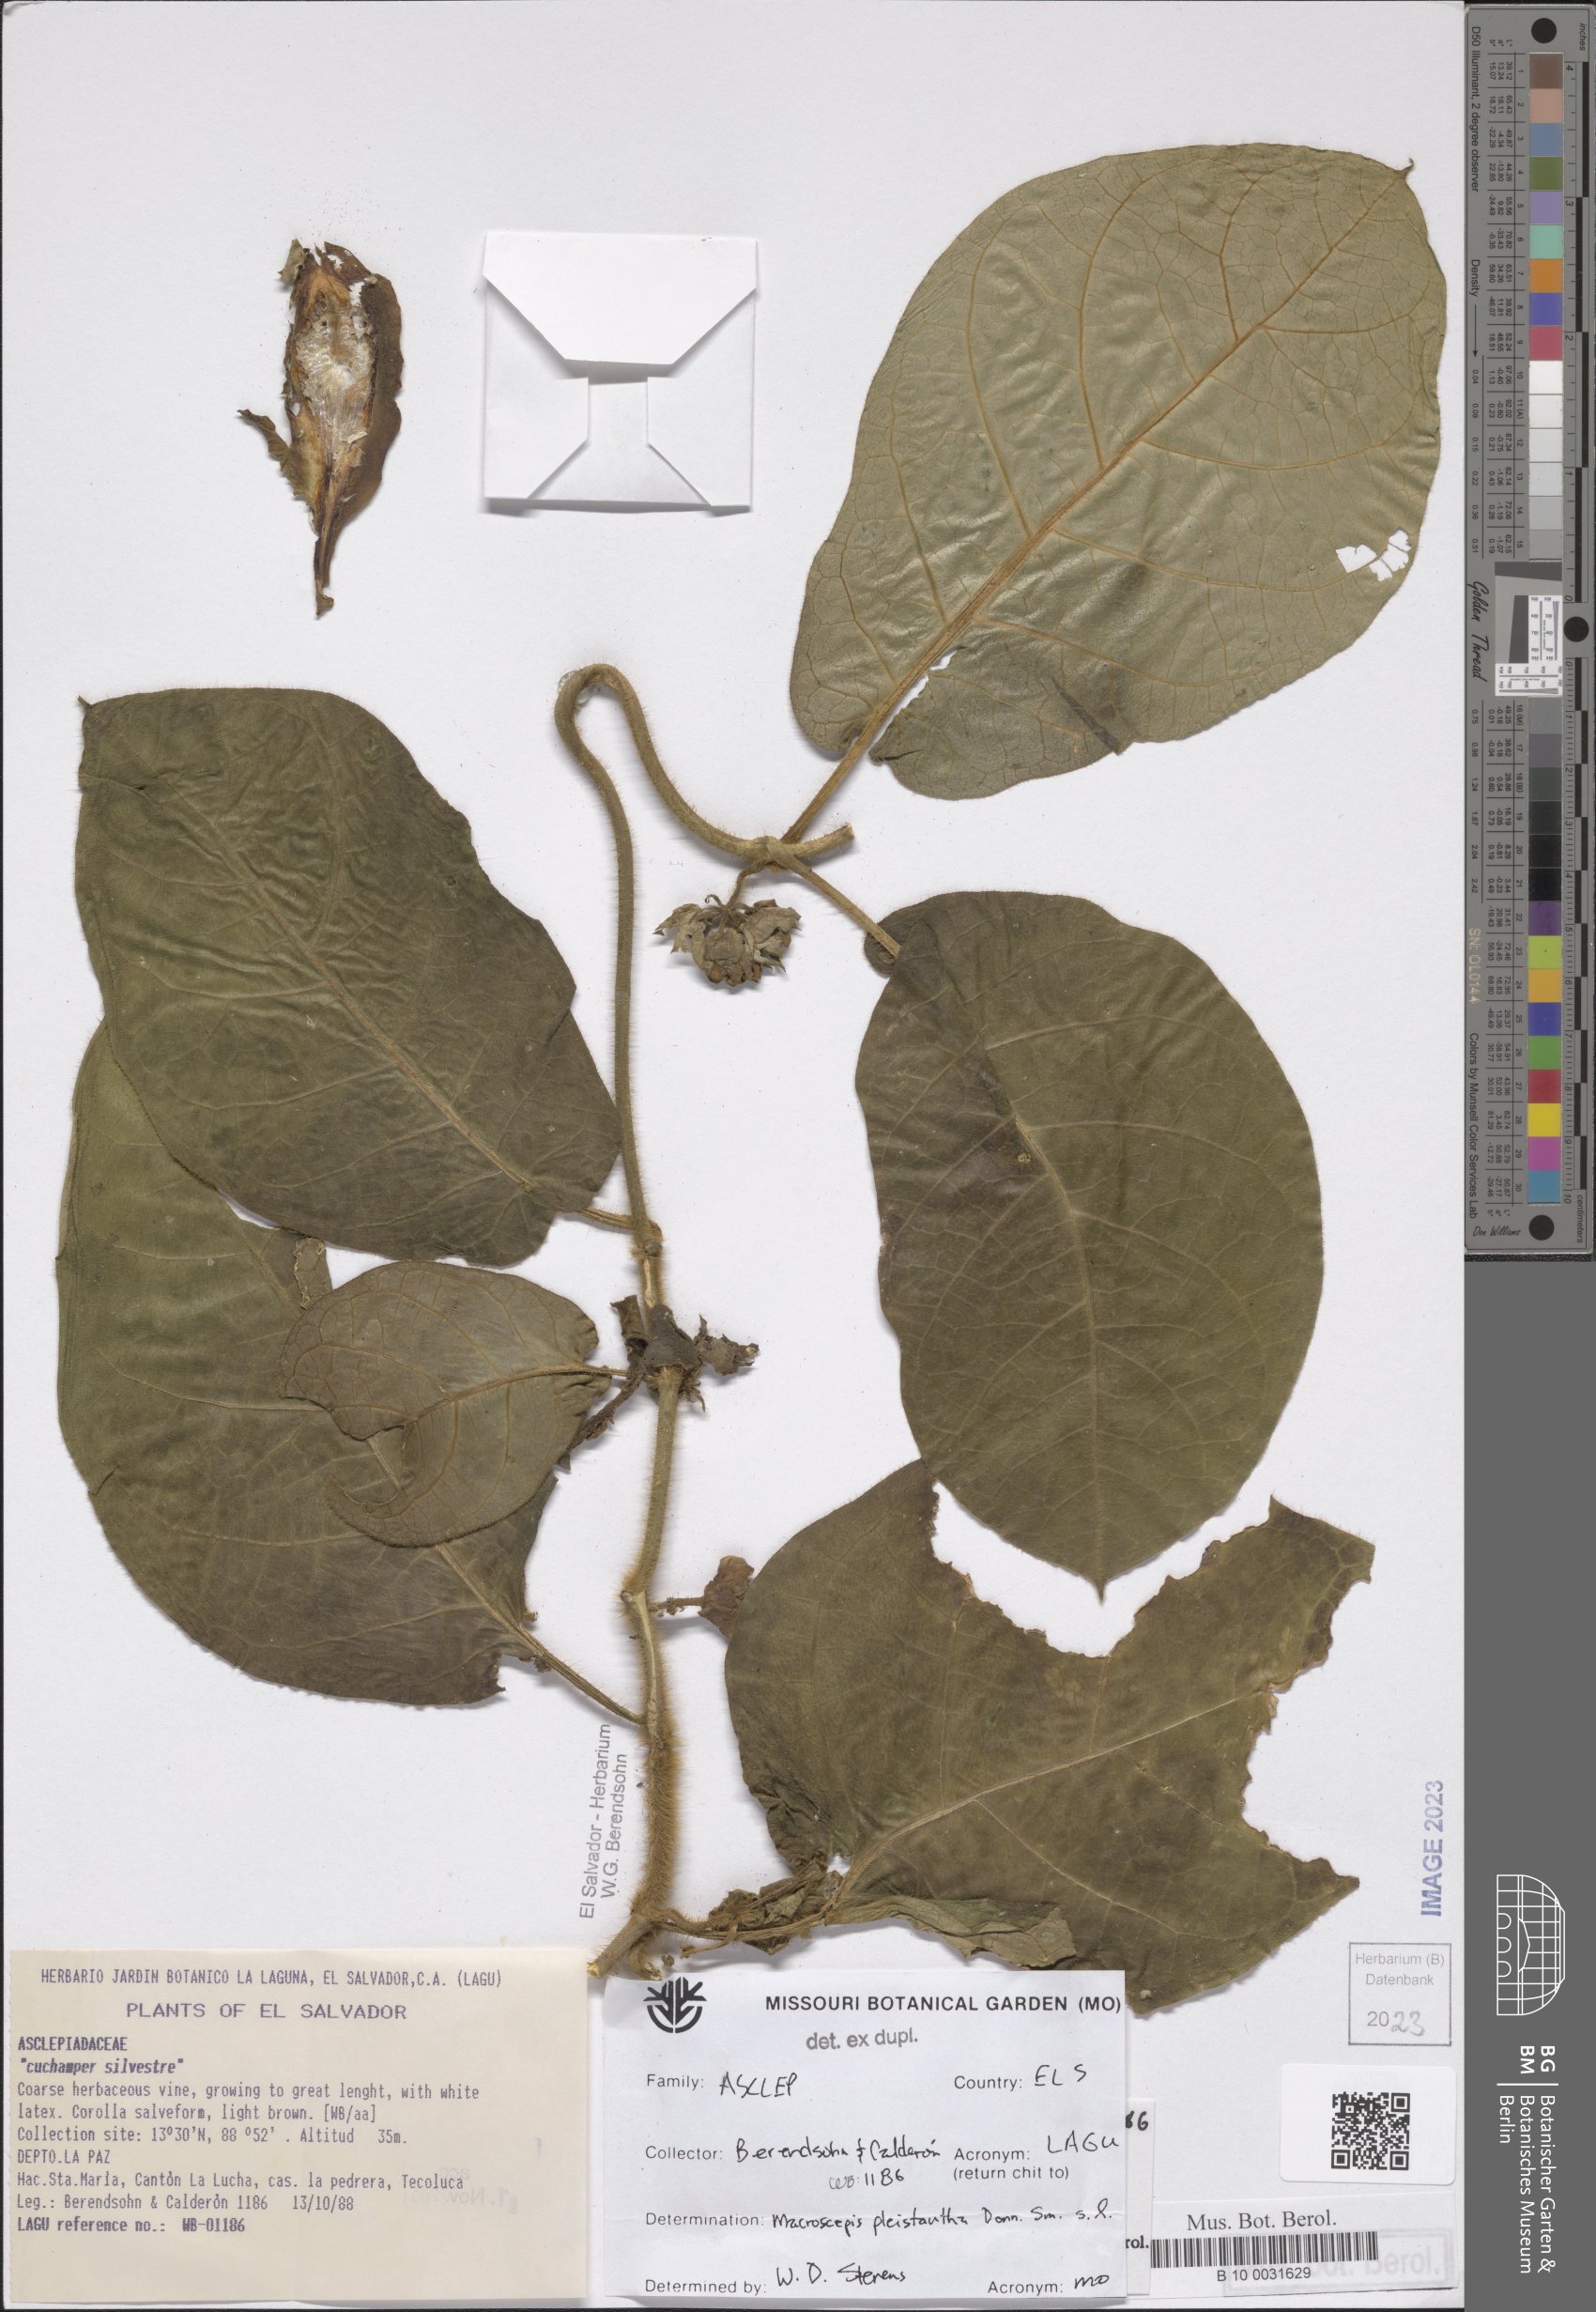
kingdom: Plantae
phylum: Tracheophyta
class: Magnoliopsida
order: Gentianales
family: Apocynaceae
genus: Macroscepis
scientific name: Macroscepis pleistantha
